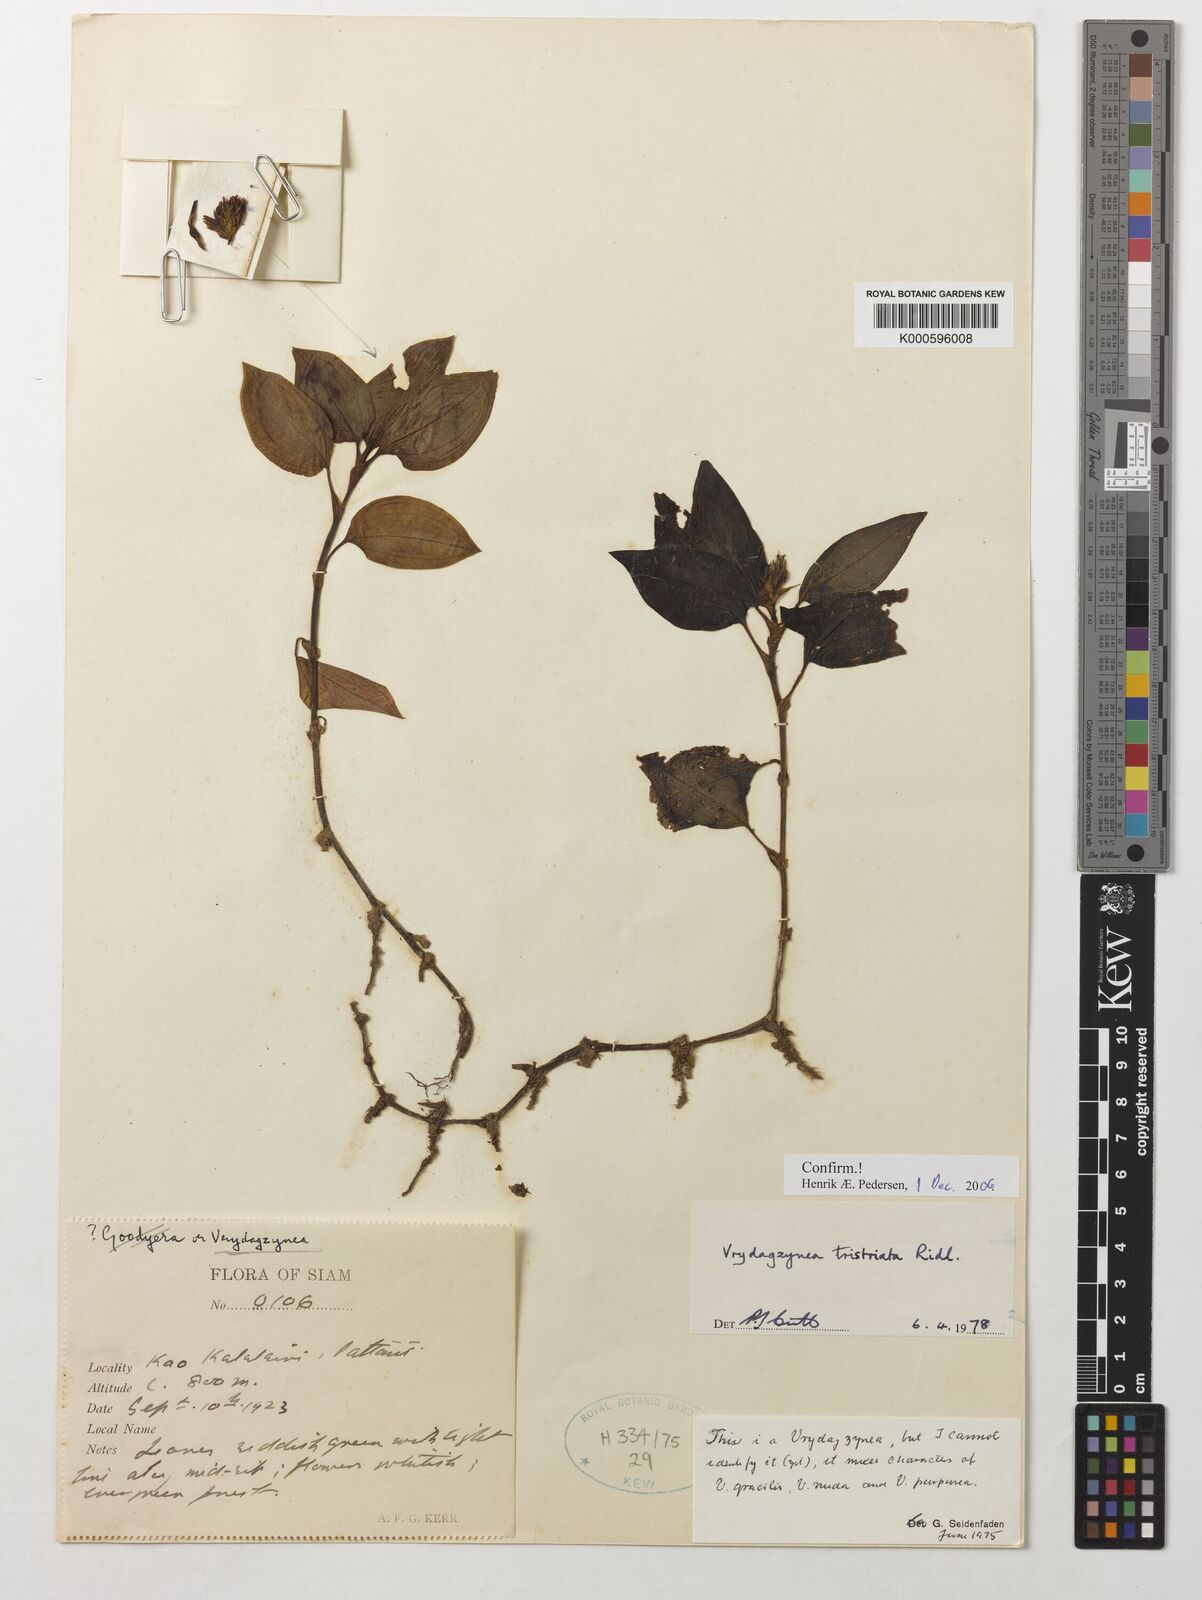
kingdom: Plantae
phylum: Tracheophyta
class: Liliopsida
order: Asparagales
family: Orchidaceae
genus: Vrydagzynea
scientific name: Vrydagzynea tristriata
